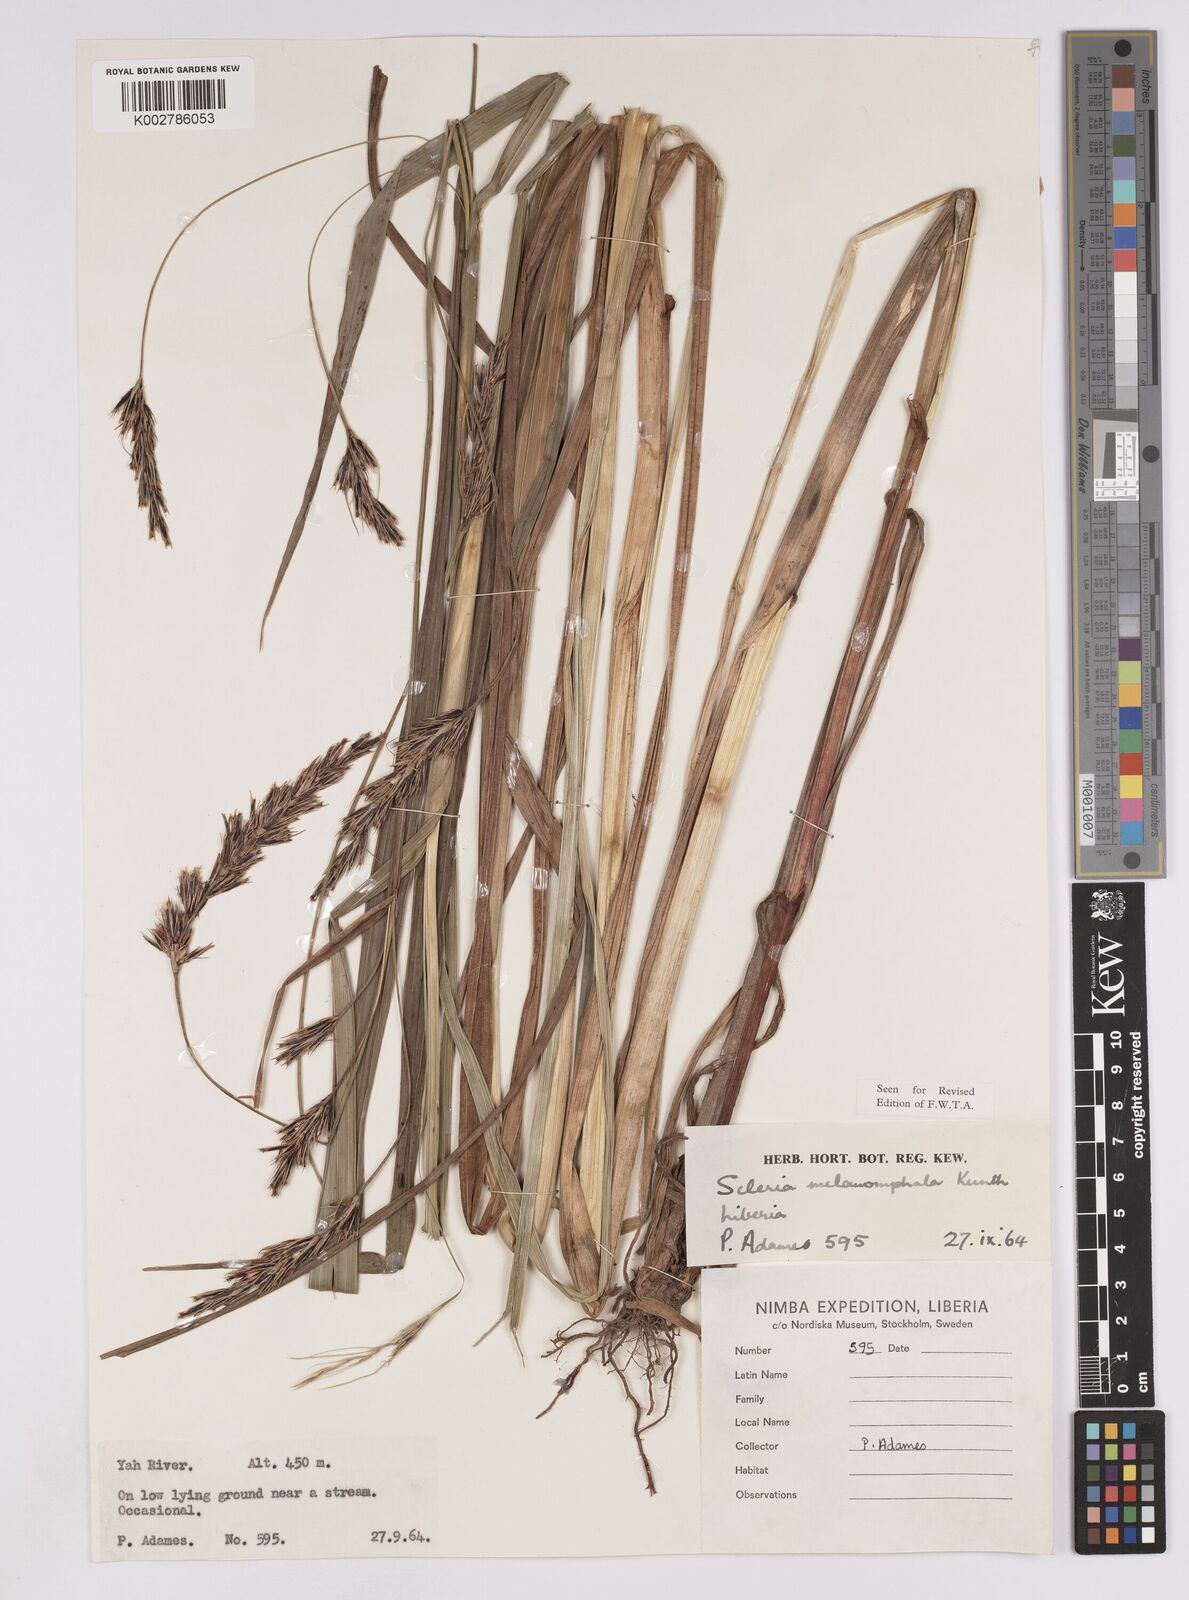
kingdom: Plantae
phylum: Tracheophyta
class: Liliopsida
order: Poales
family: Cyperaceae
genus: Scleria
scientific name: Scleria melanomphala
